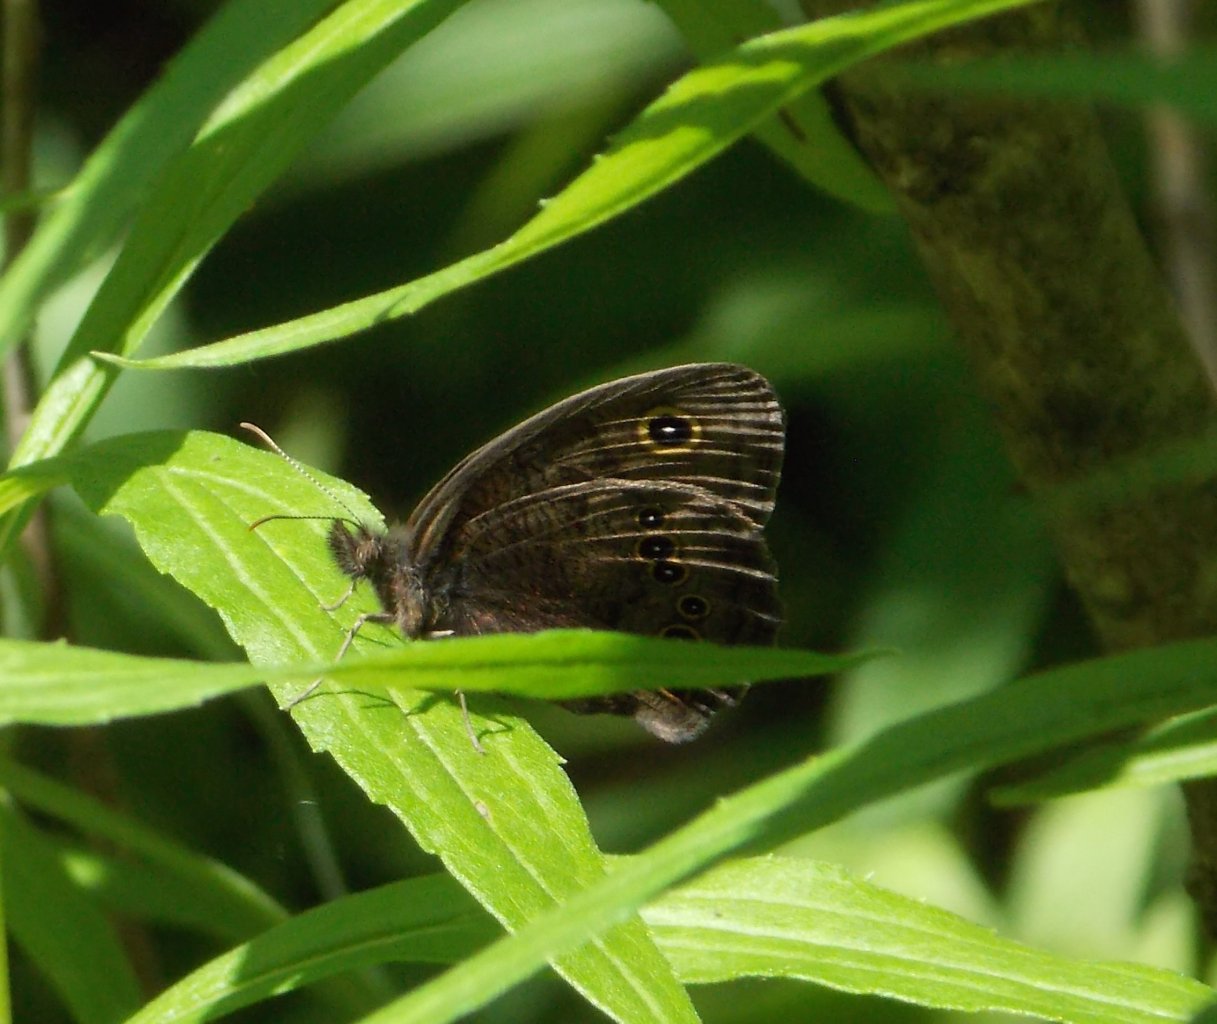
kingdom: Animalia
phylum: Arthropoda
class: Insecta
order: Lepidoptera
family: Nymphalidae
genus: Cercyonis
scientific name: Cercyonis pegala
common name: Common Wood-Nymph
